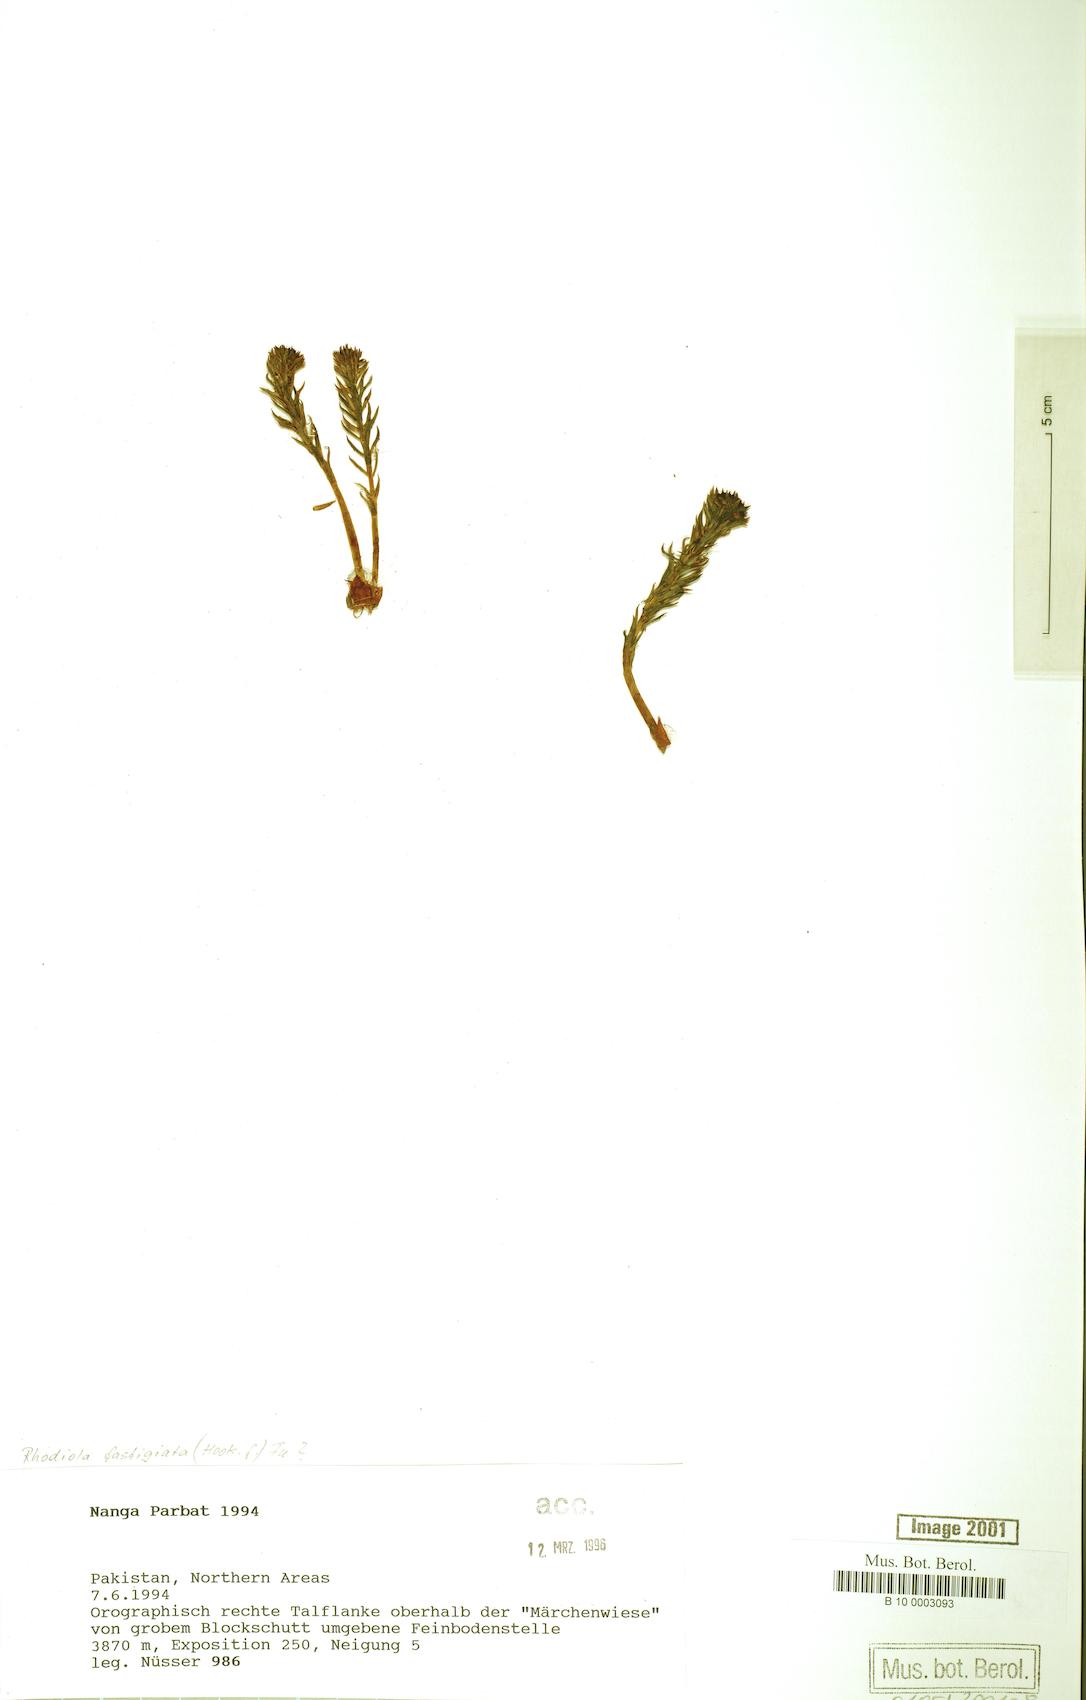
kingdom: Plantae
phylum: Tracheophyta
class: Magnoliopsida
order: Saxifragales
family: Crassulaceae
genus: Rhodiola
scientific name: Rhodiola fastigiata
